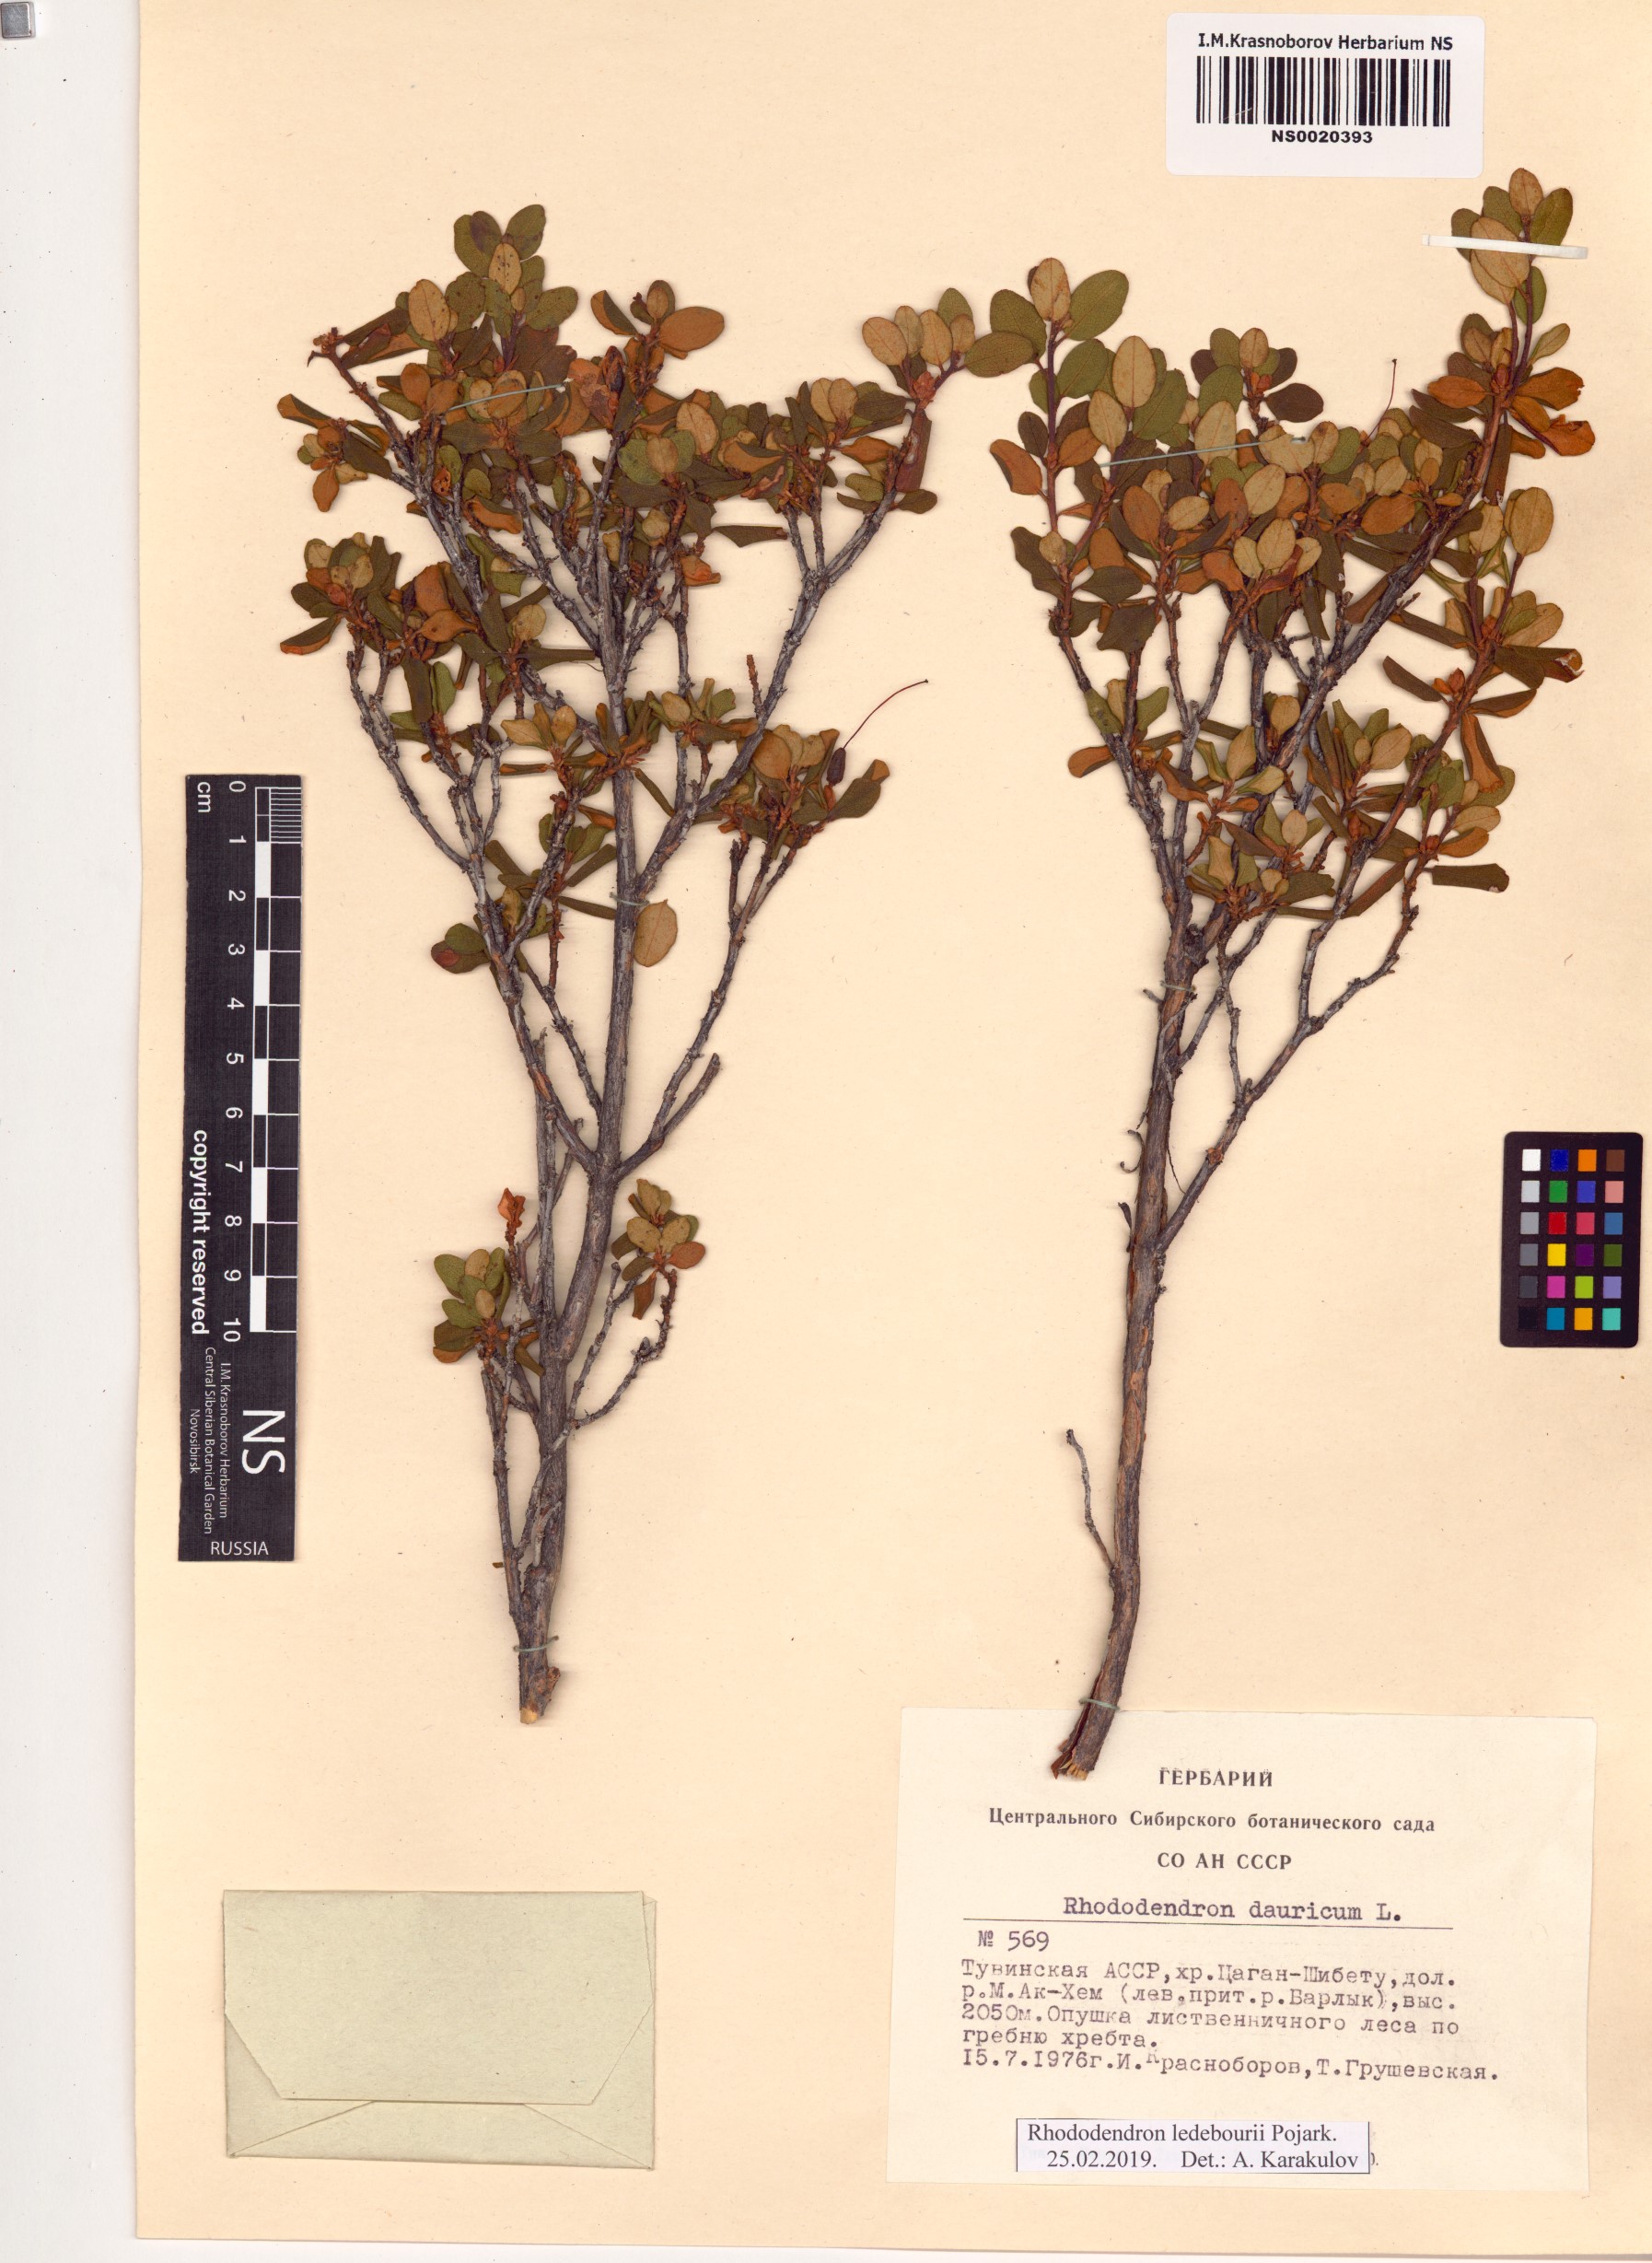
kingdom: Plantae
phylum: Tracheophyta
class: Magnoliopsida
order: Ericales
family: Ericaceae
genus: Rhododendron
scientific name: Rhododendron dauricum
